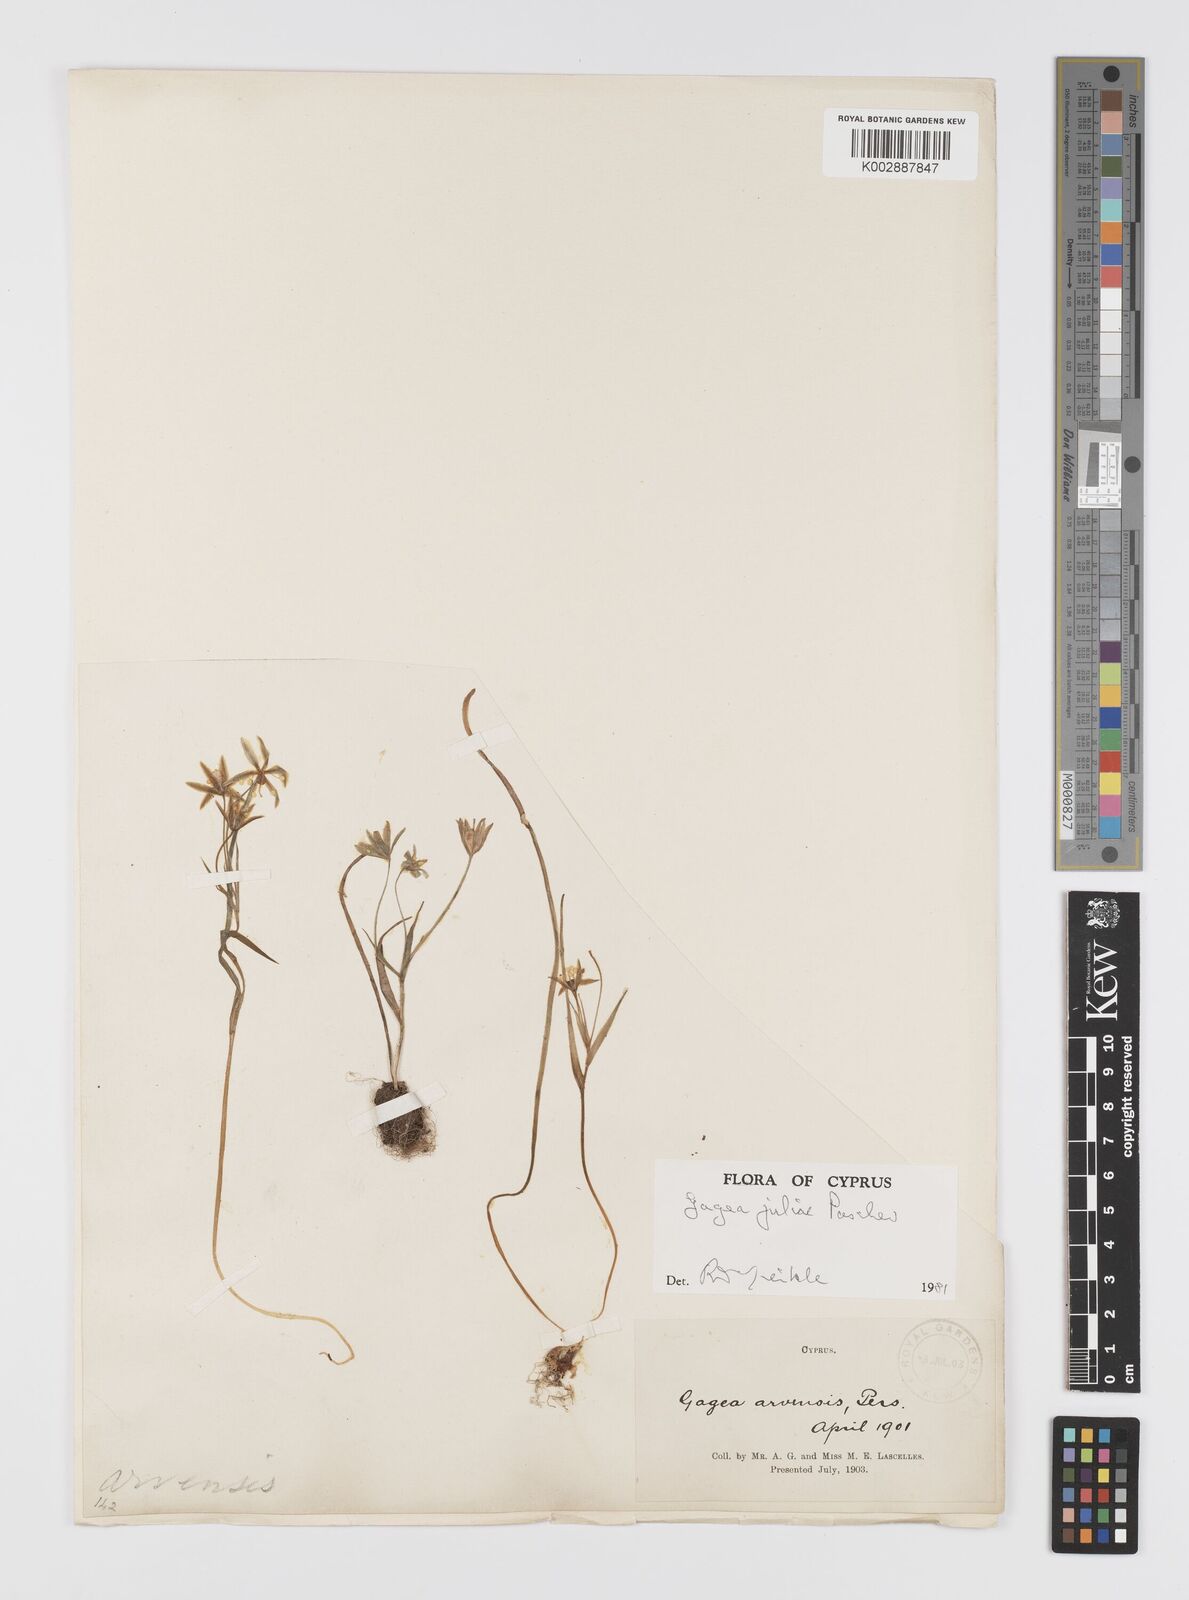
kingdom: Plantae
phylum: Tracheophyta
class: Liliopsida
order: Liliales
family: Liliaceae
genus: Gagea
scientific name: Gagea juliae
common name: Julia’s gagea
